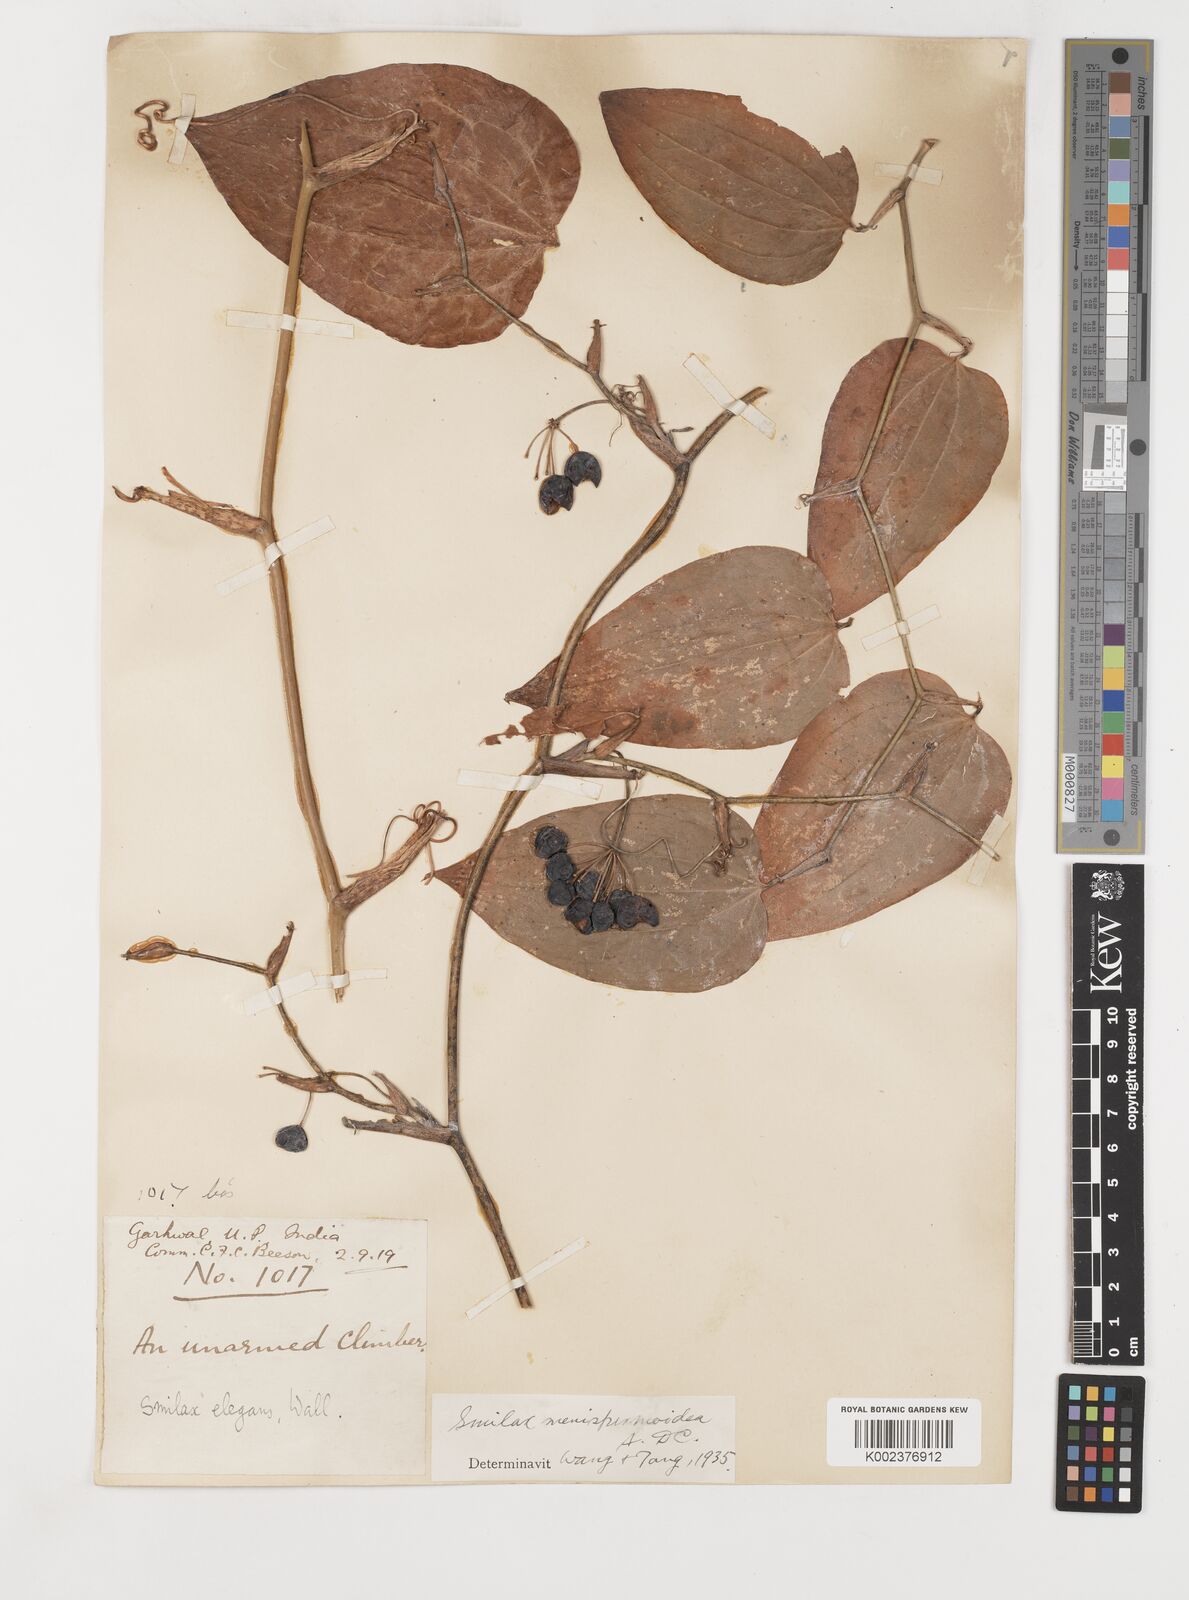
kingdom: Plantae
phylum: Tracheophyta
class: Liliopsida
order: Liliales
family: Smilacaceae
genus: Smilax
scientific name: Smilax menispermoidea
